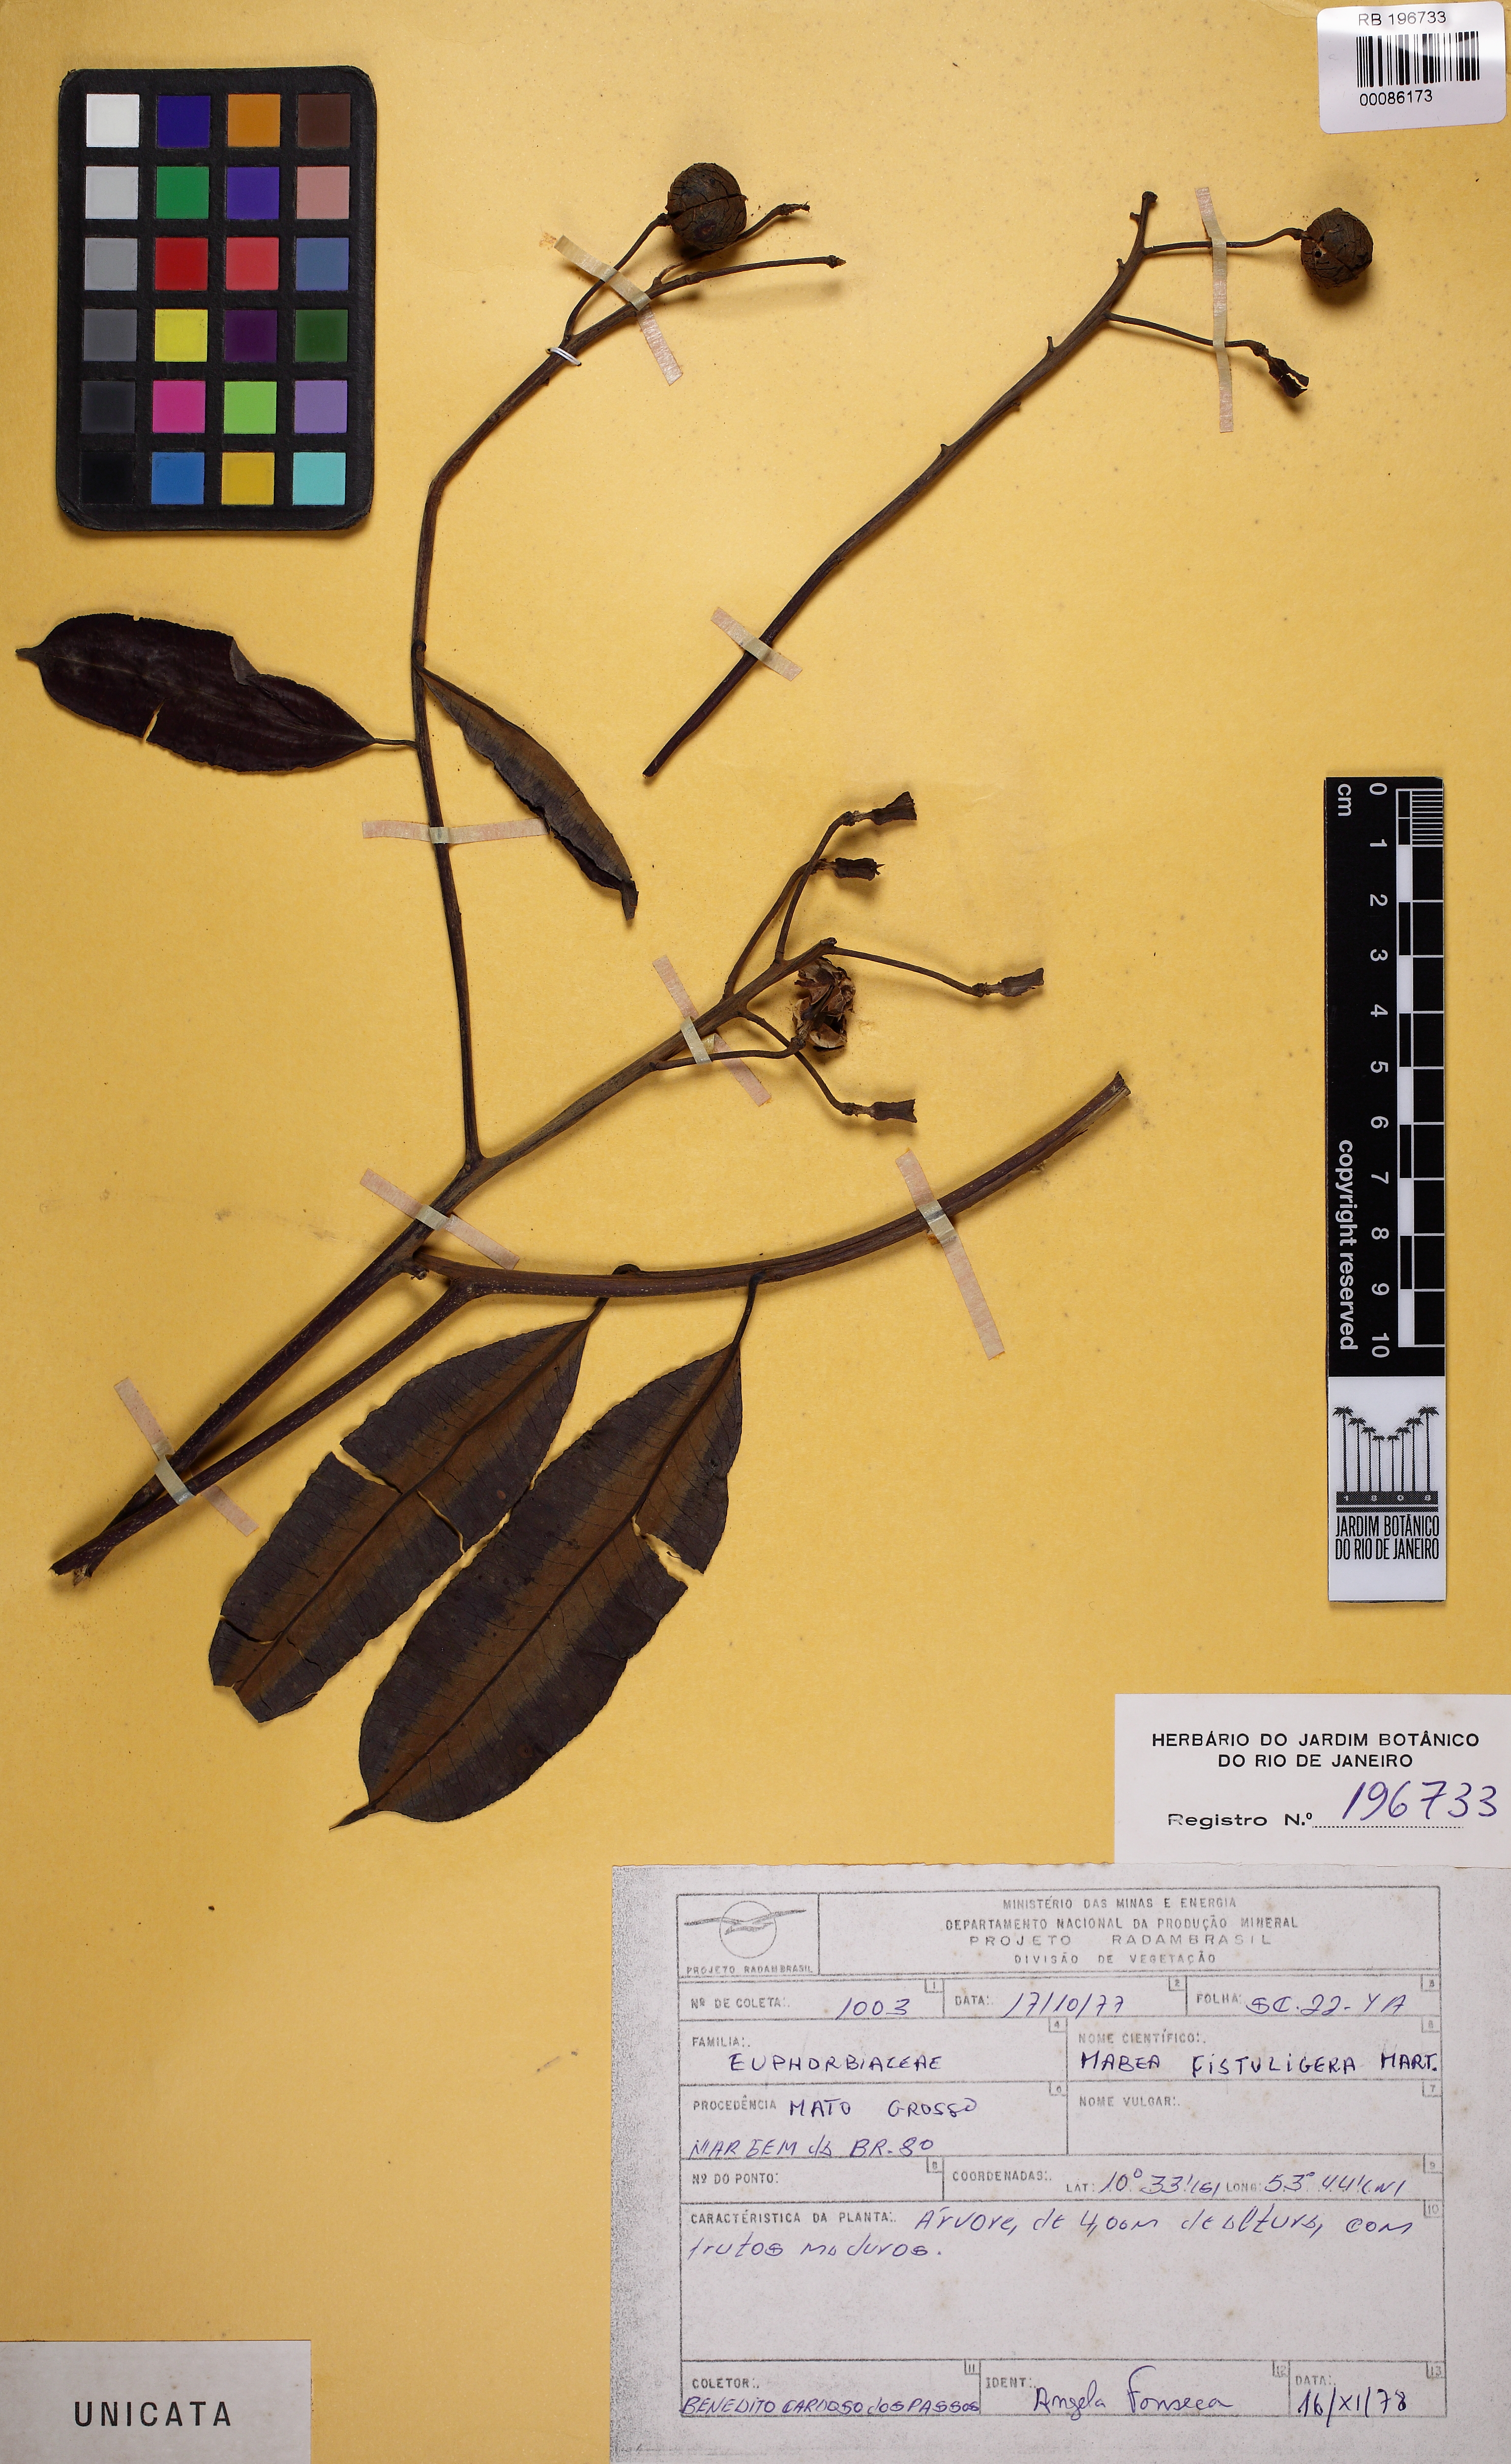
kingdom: Plantae
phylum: Tracheophyta
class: Magnoliopsida
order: Malpighiales
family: Euphorbiaceae
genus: Mabea
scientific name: Mabea fistulifera
